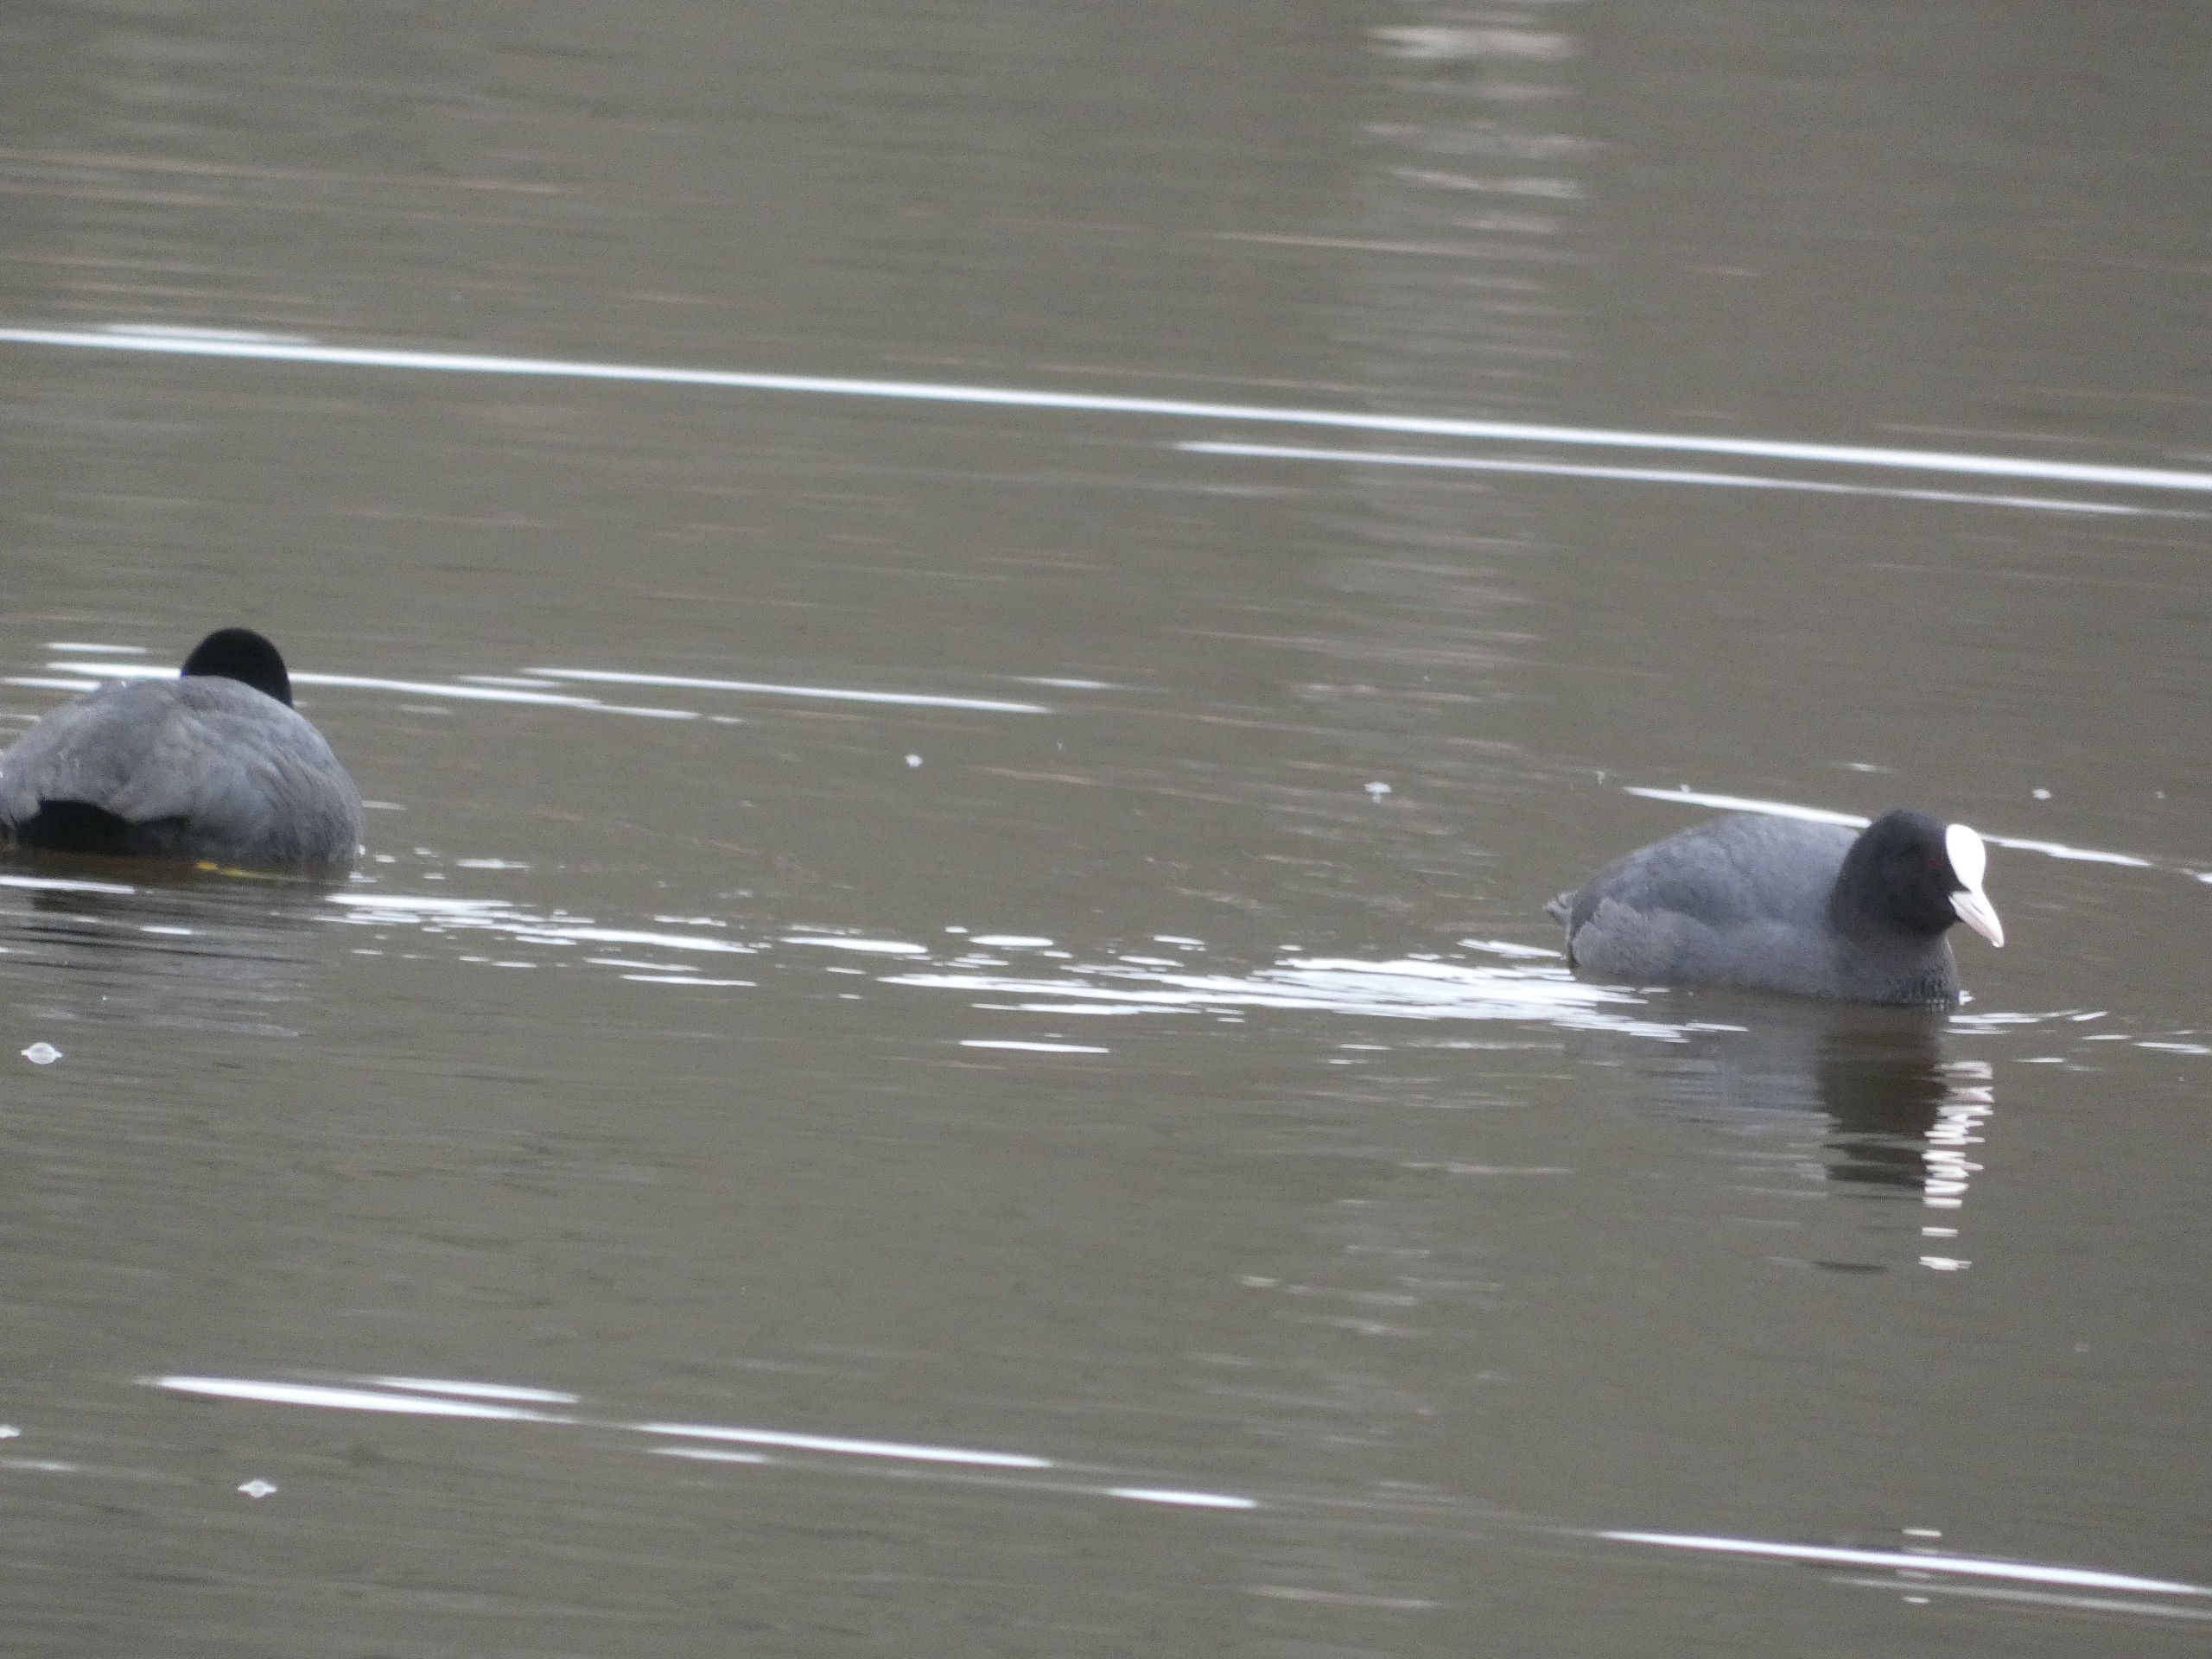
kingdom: Animalia
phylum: Chordata
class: Aves
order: Gruiformes
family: Rallidae
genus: Fulica
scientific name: Fulica atra
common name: Blishøne
